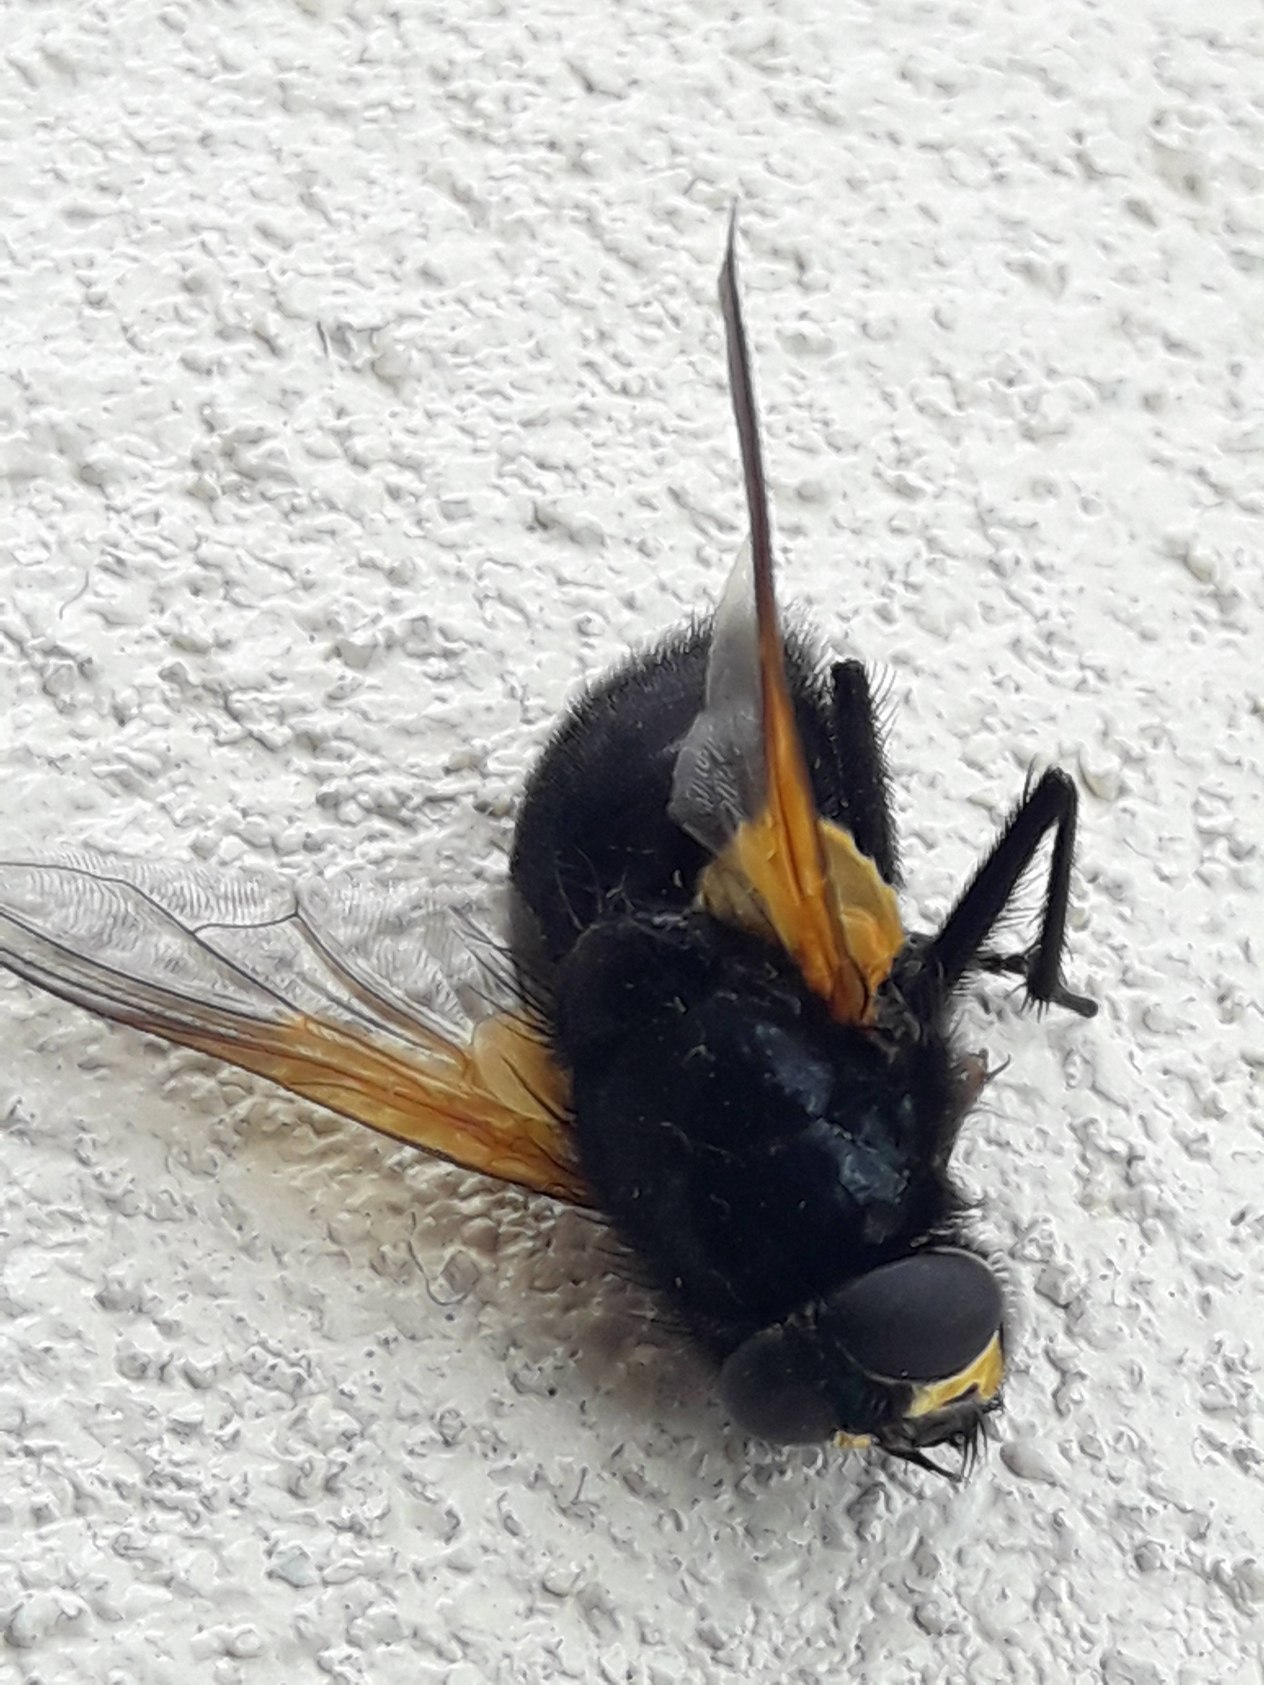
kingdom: Animalia
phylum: Arthropoda
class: Insecta
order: Diptera
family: Muscidae
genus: Mesembrina
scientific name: Mesembrina meridiana
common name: Gulvinget flue
